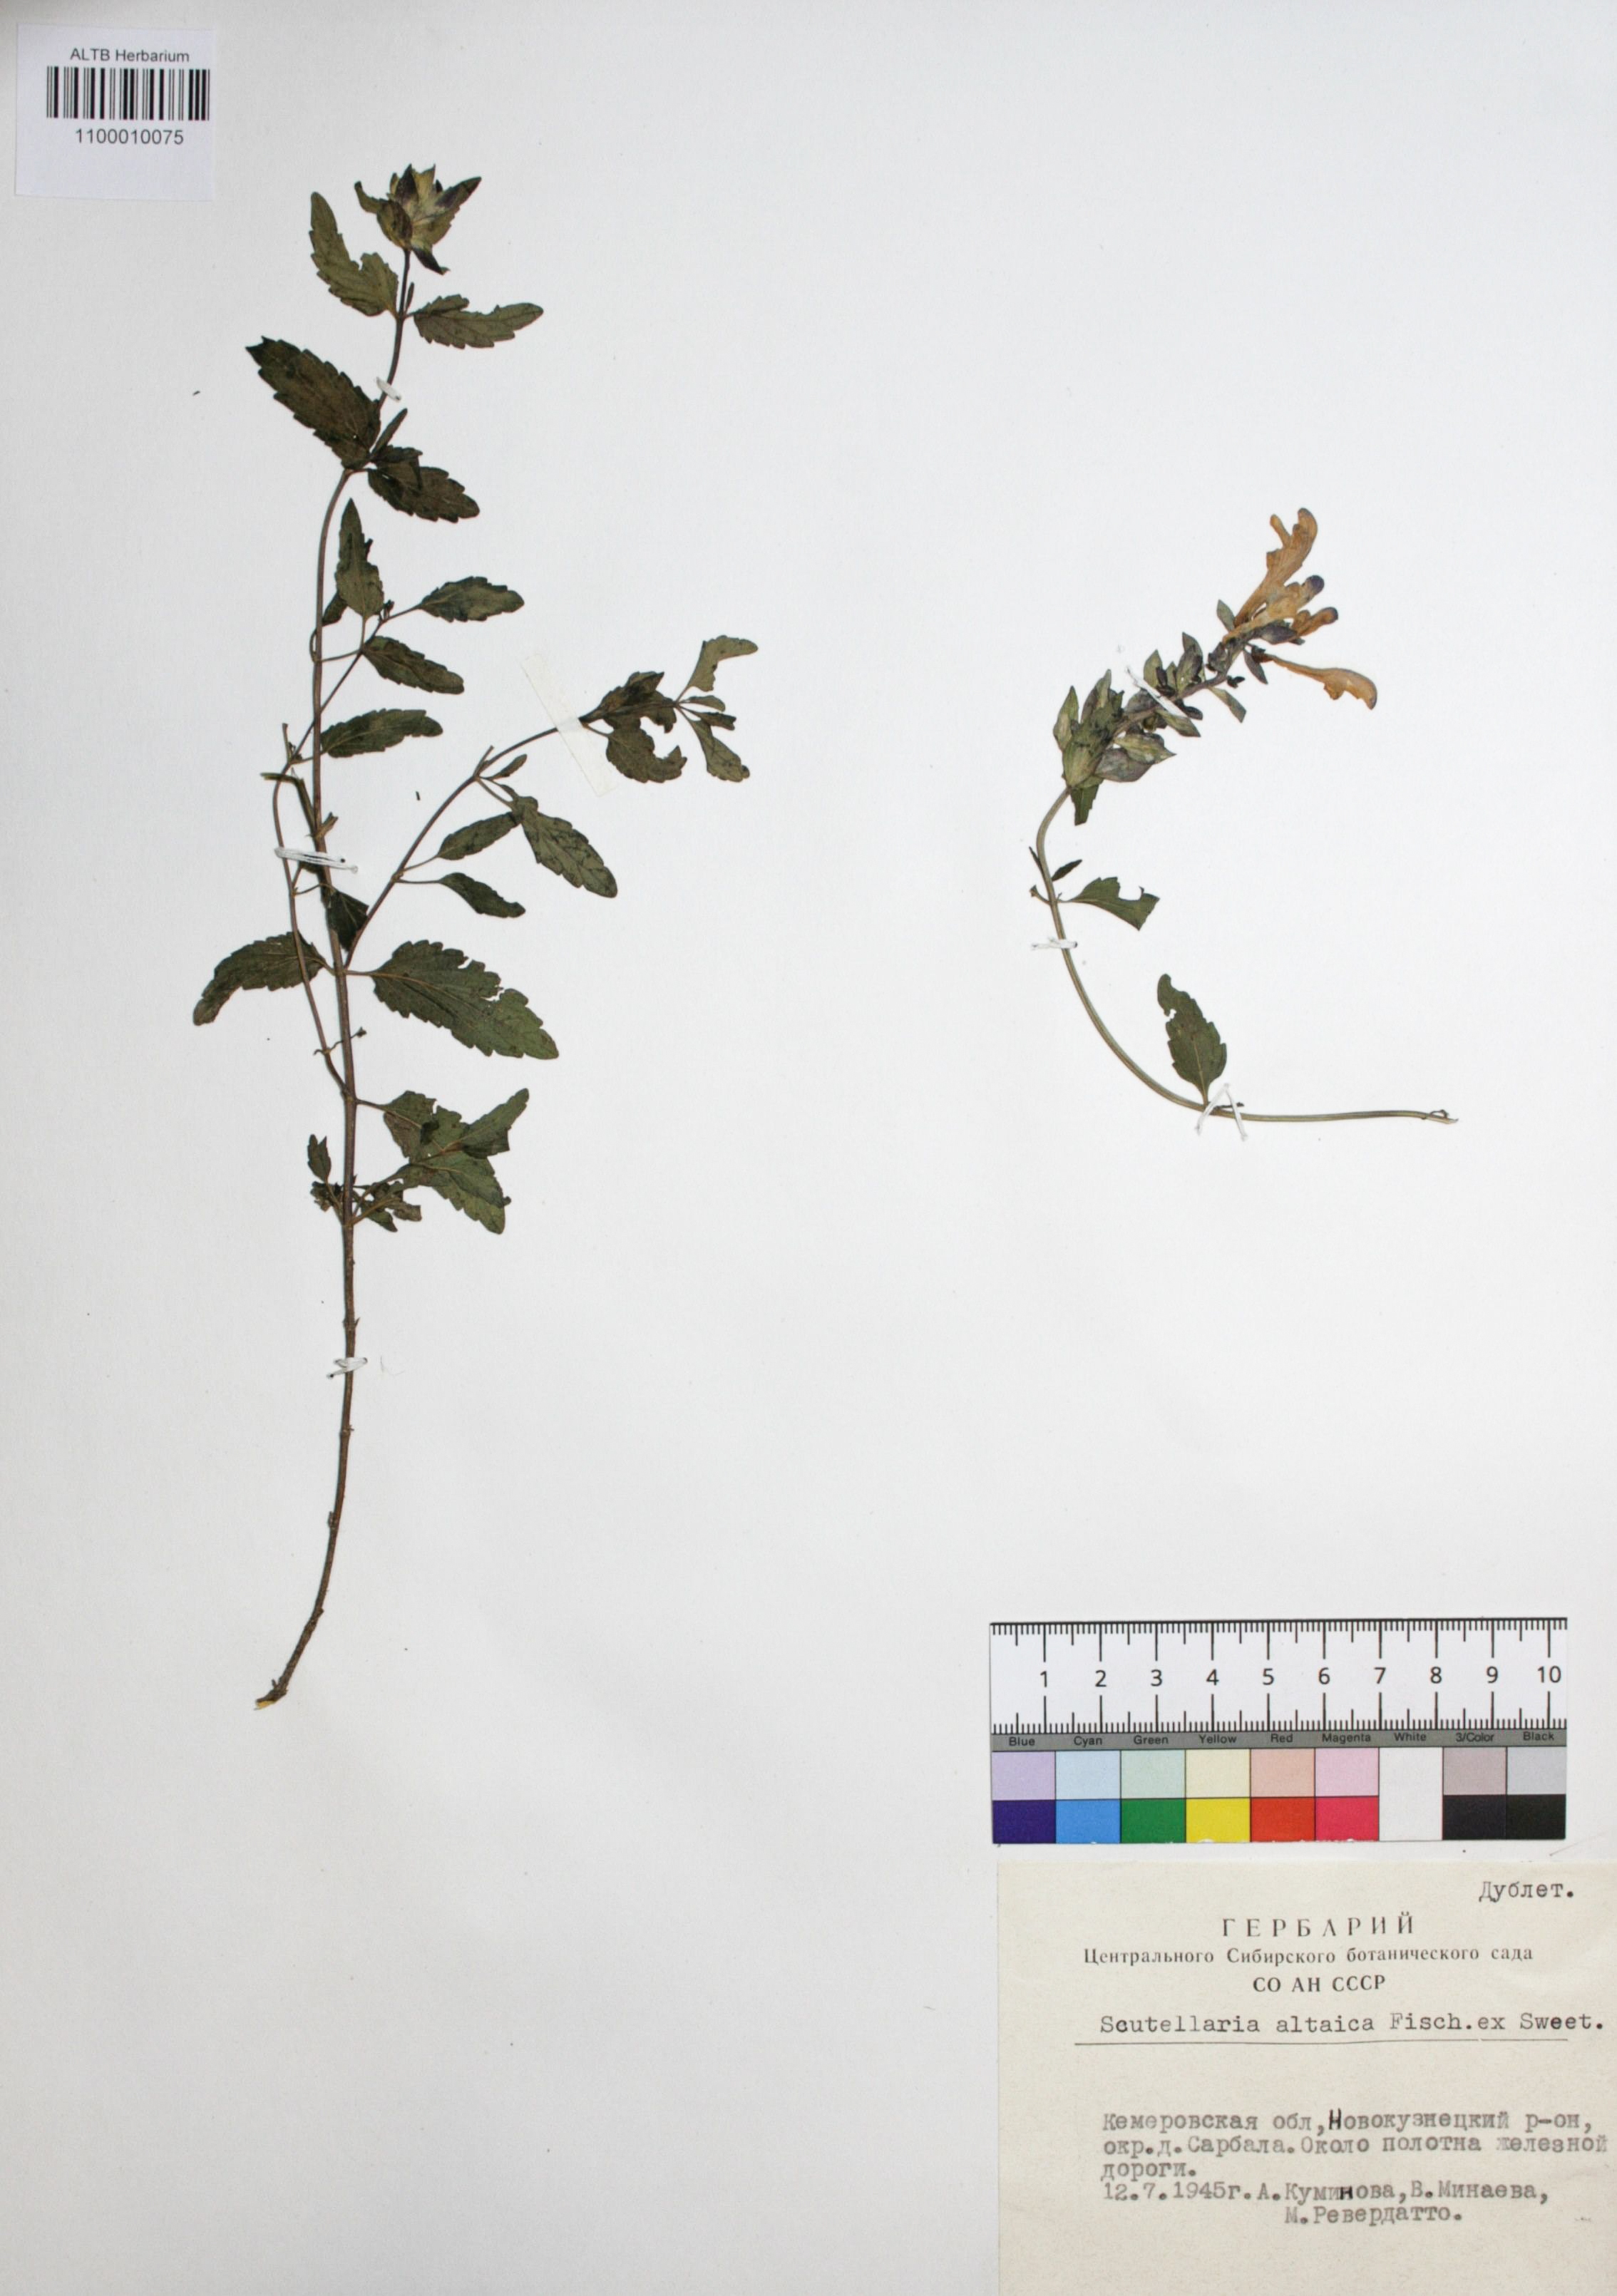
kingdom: Plantae
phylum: Tracheophyta
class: Magnoliopsida
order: Lamiales
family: Lamiaceae
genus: Scutellaria
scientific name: Scutellaria altaica
